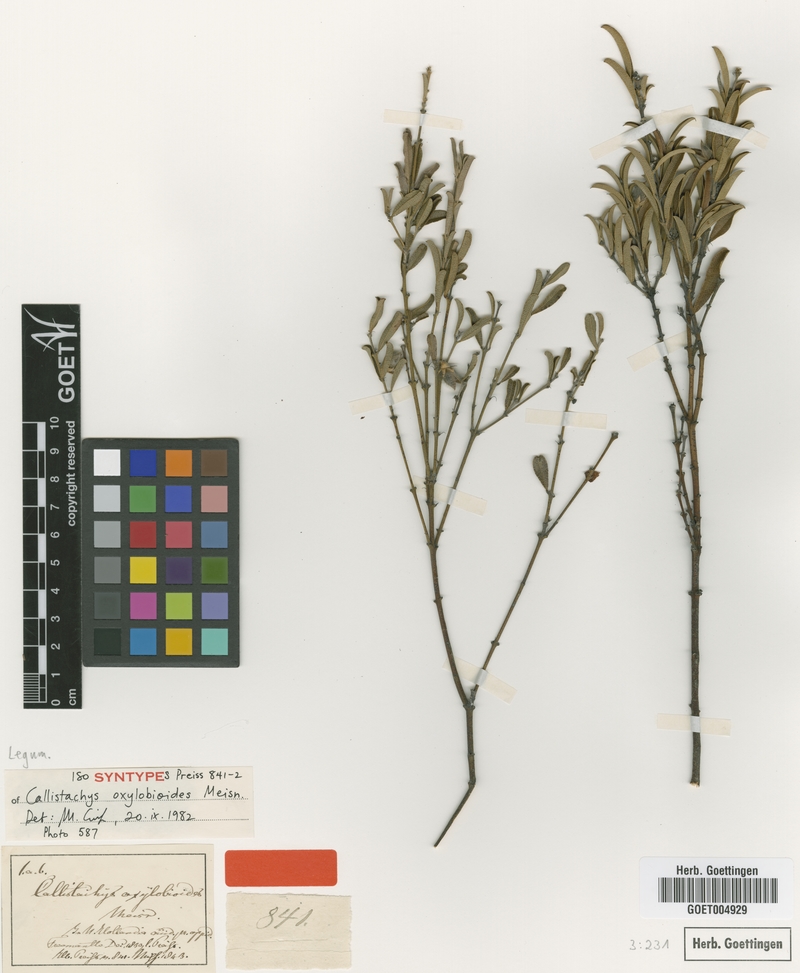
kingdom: Plantae
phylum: Tracheophyta
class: Magnoliopsida
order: Fabales
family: Fabaceae
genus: Gastrolobium
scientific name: Gastrolobium linearifolium
